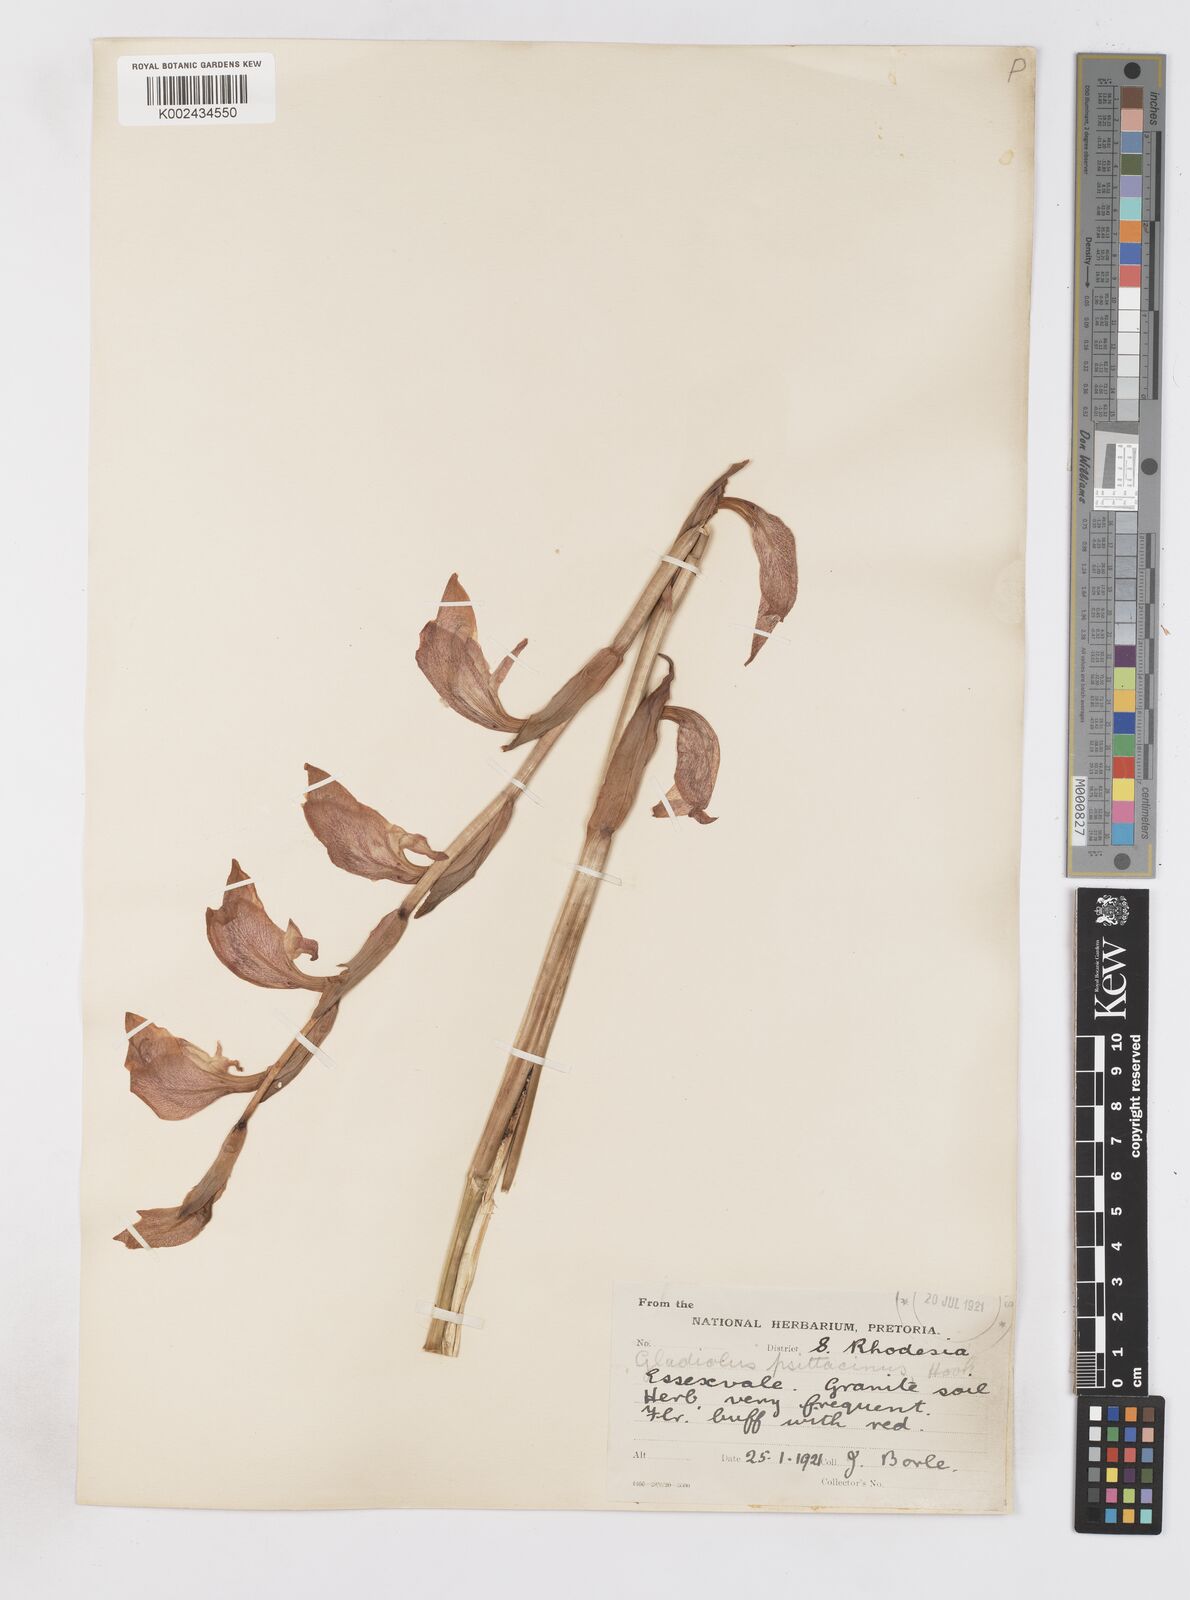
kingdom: Plantae
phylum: Tracheophyta
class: Liliopsida
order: Asparagales
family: Iridaceae
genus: Gladiolus
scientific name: Gladiolus dalenii
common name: Cornflag
